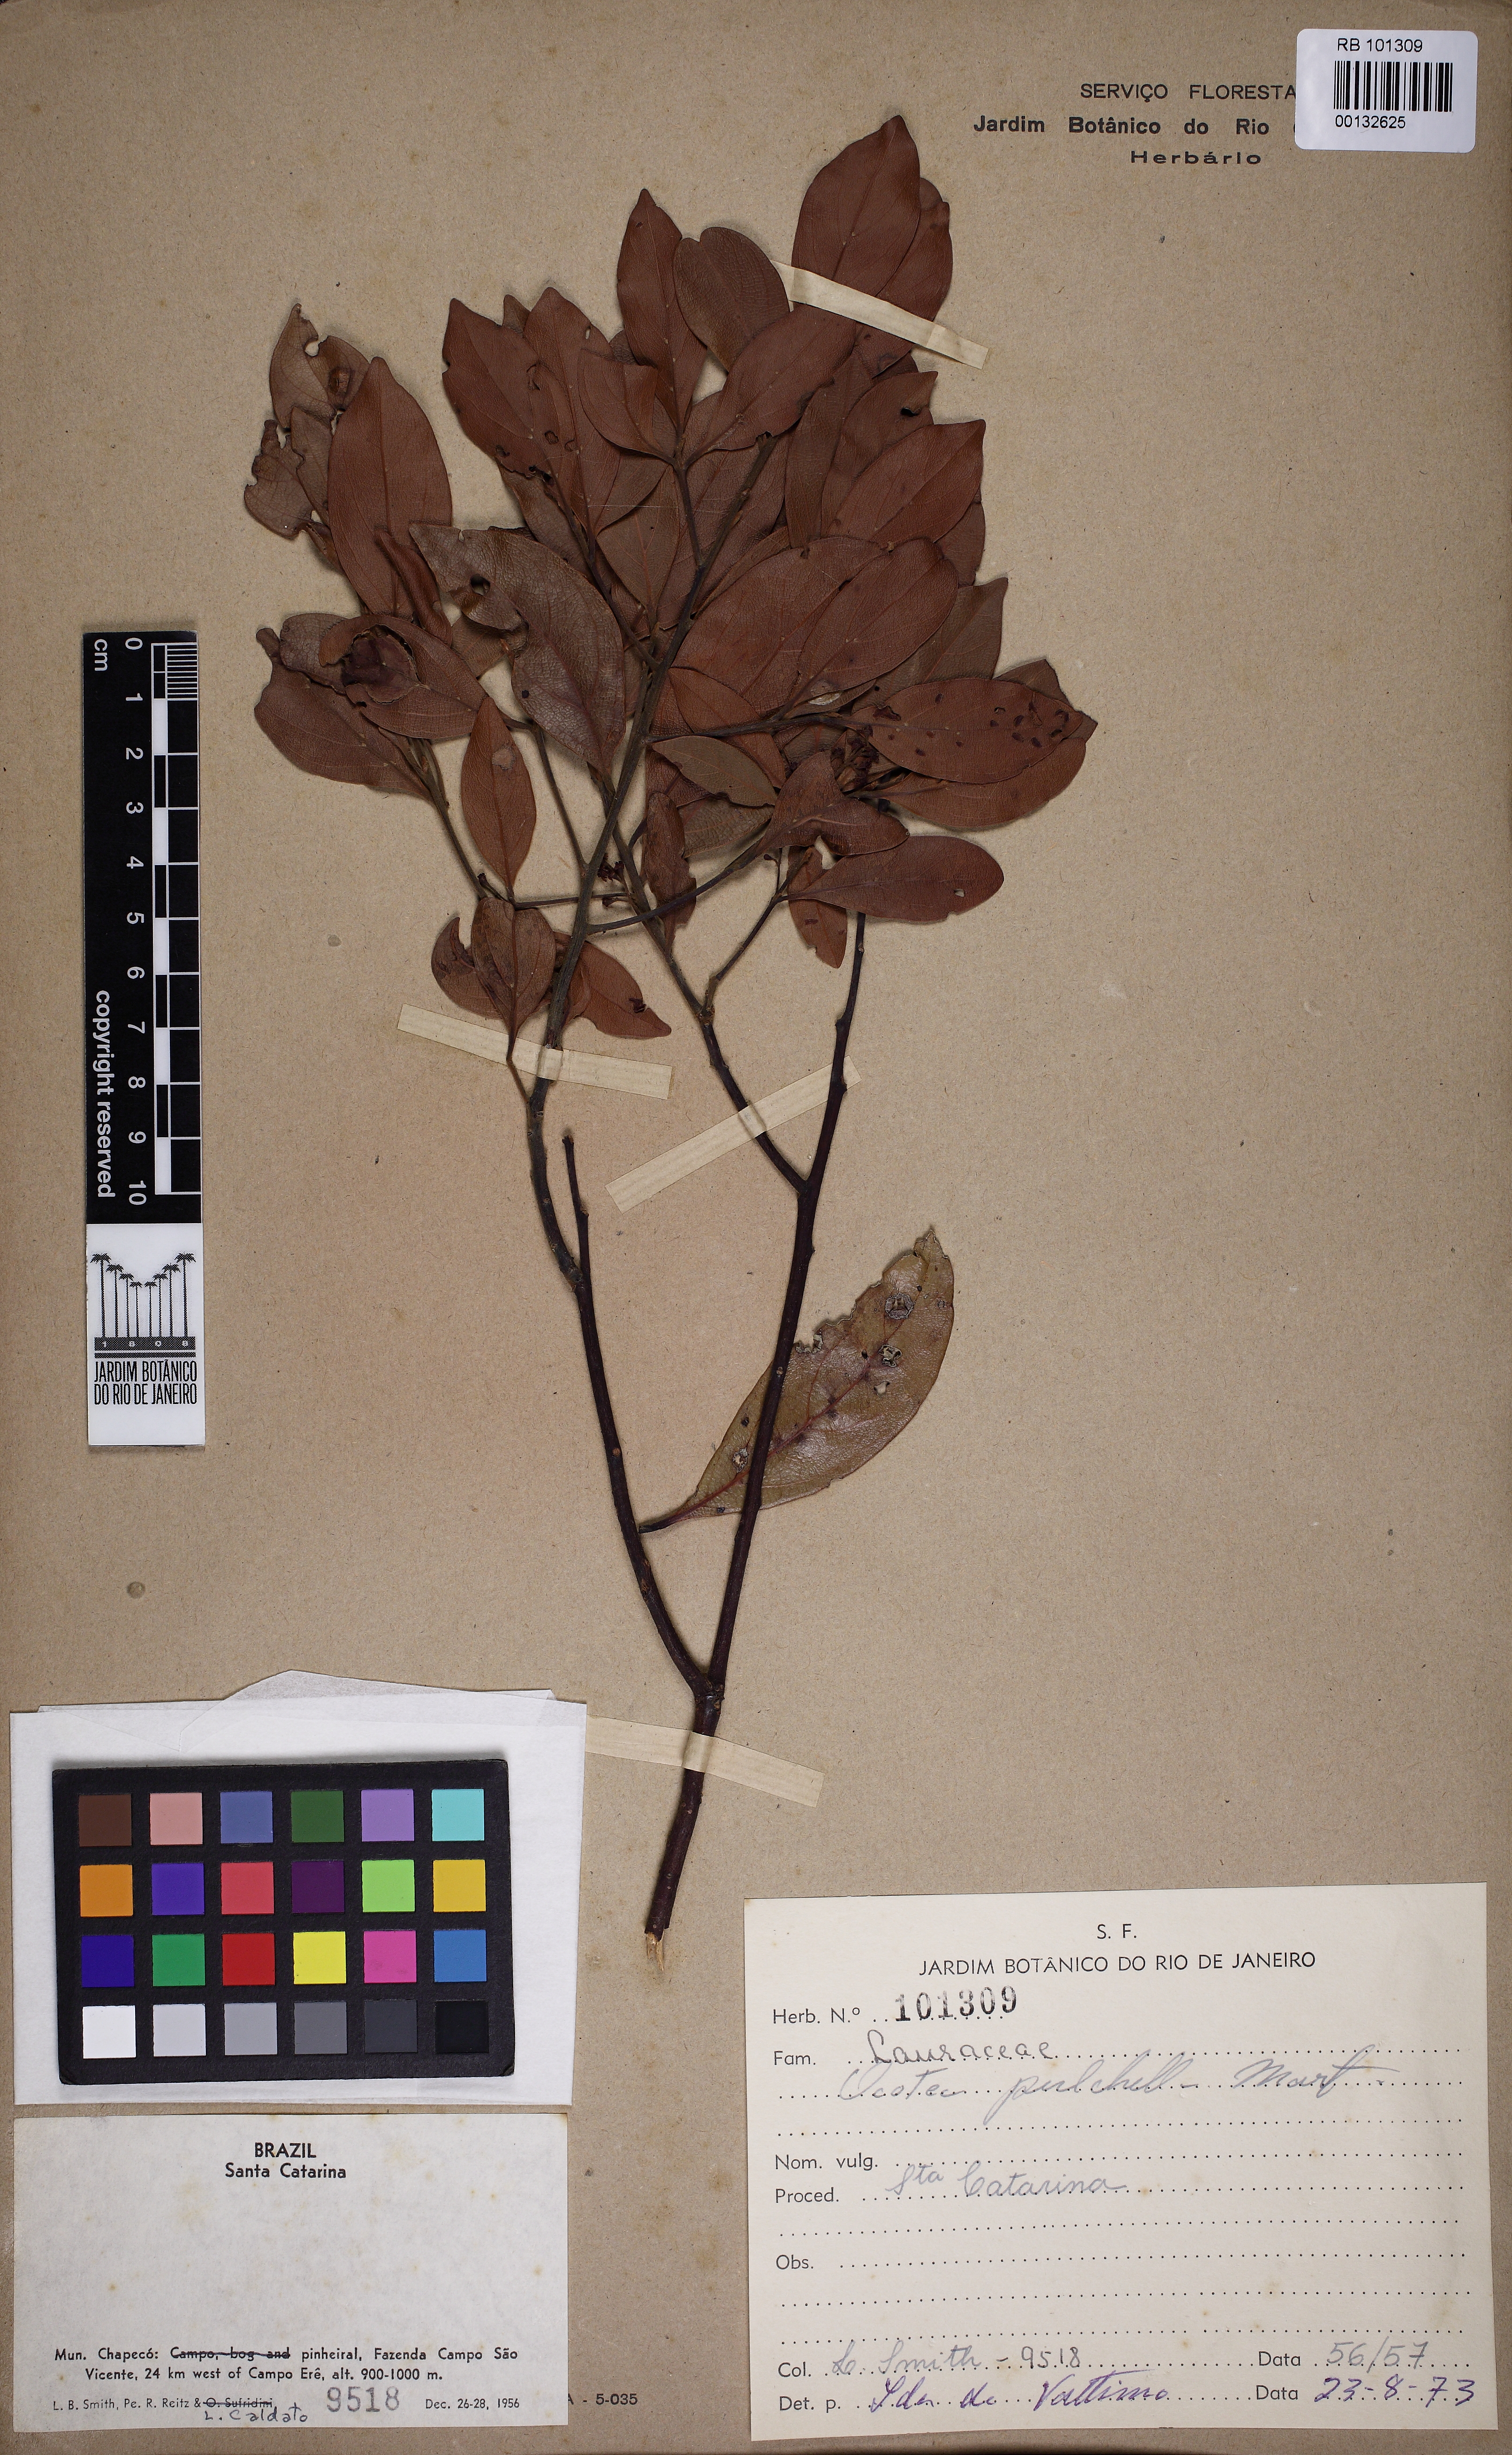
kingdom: Plantae
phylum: Tracheophyta
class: Magnoliopsida
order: Laurales
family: Lauraceae
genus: Mespilodaphne
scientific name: Mespilodaphne pulchella
